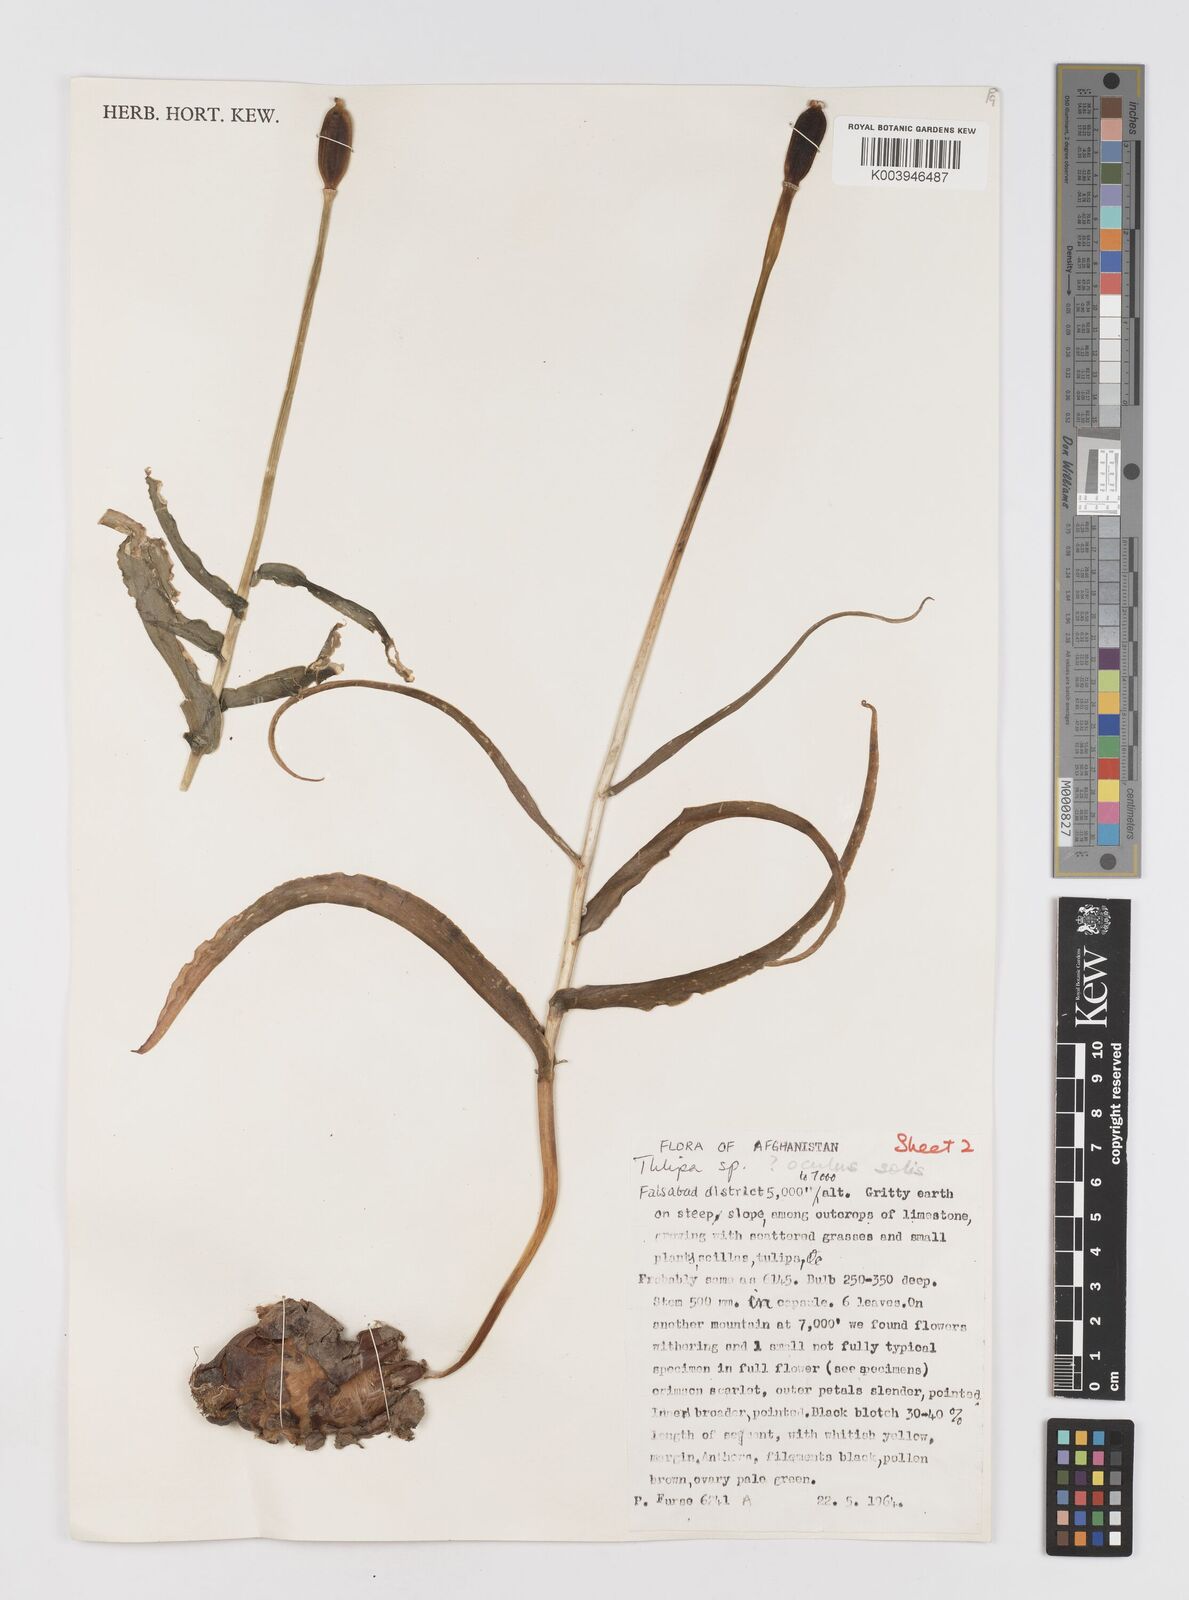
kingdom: Plantae
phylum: Tracheophyta
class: Liliopsida
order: Liliales
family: Liliaceae
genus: Tulipa
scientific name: Tulipa
